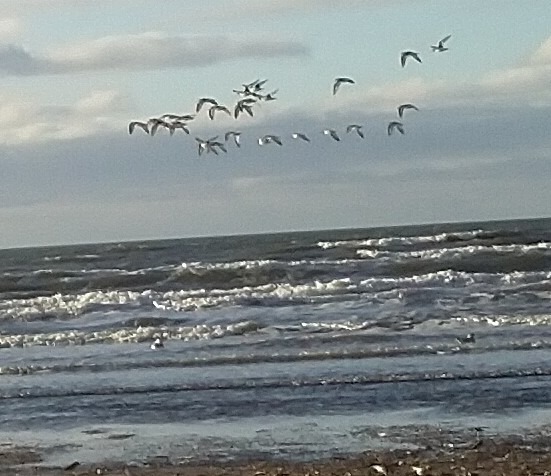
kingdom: Animalia
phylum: Chordata
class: Aves
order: Charadriiformes
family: Haematopodidae
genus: Haematopus
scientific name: Haematopus ostralegus
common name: Strandskade
